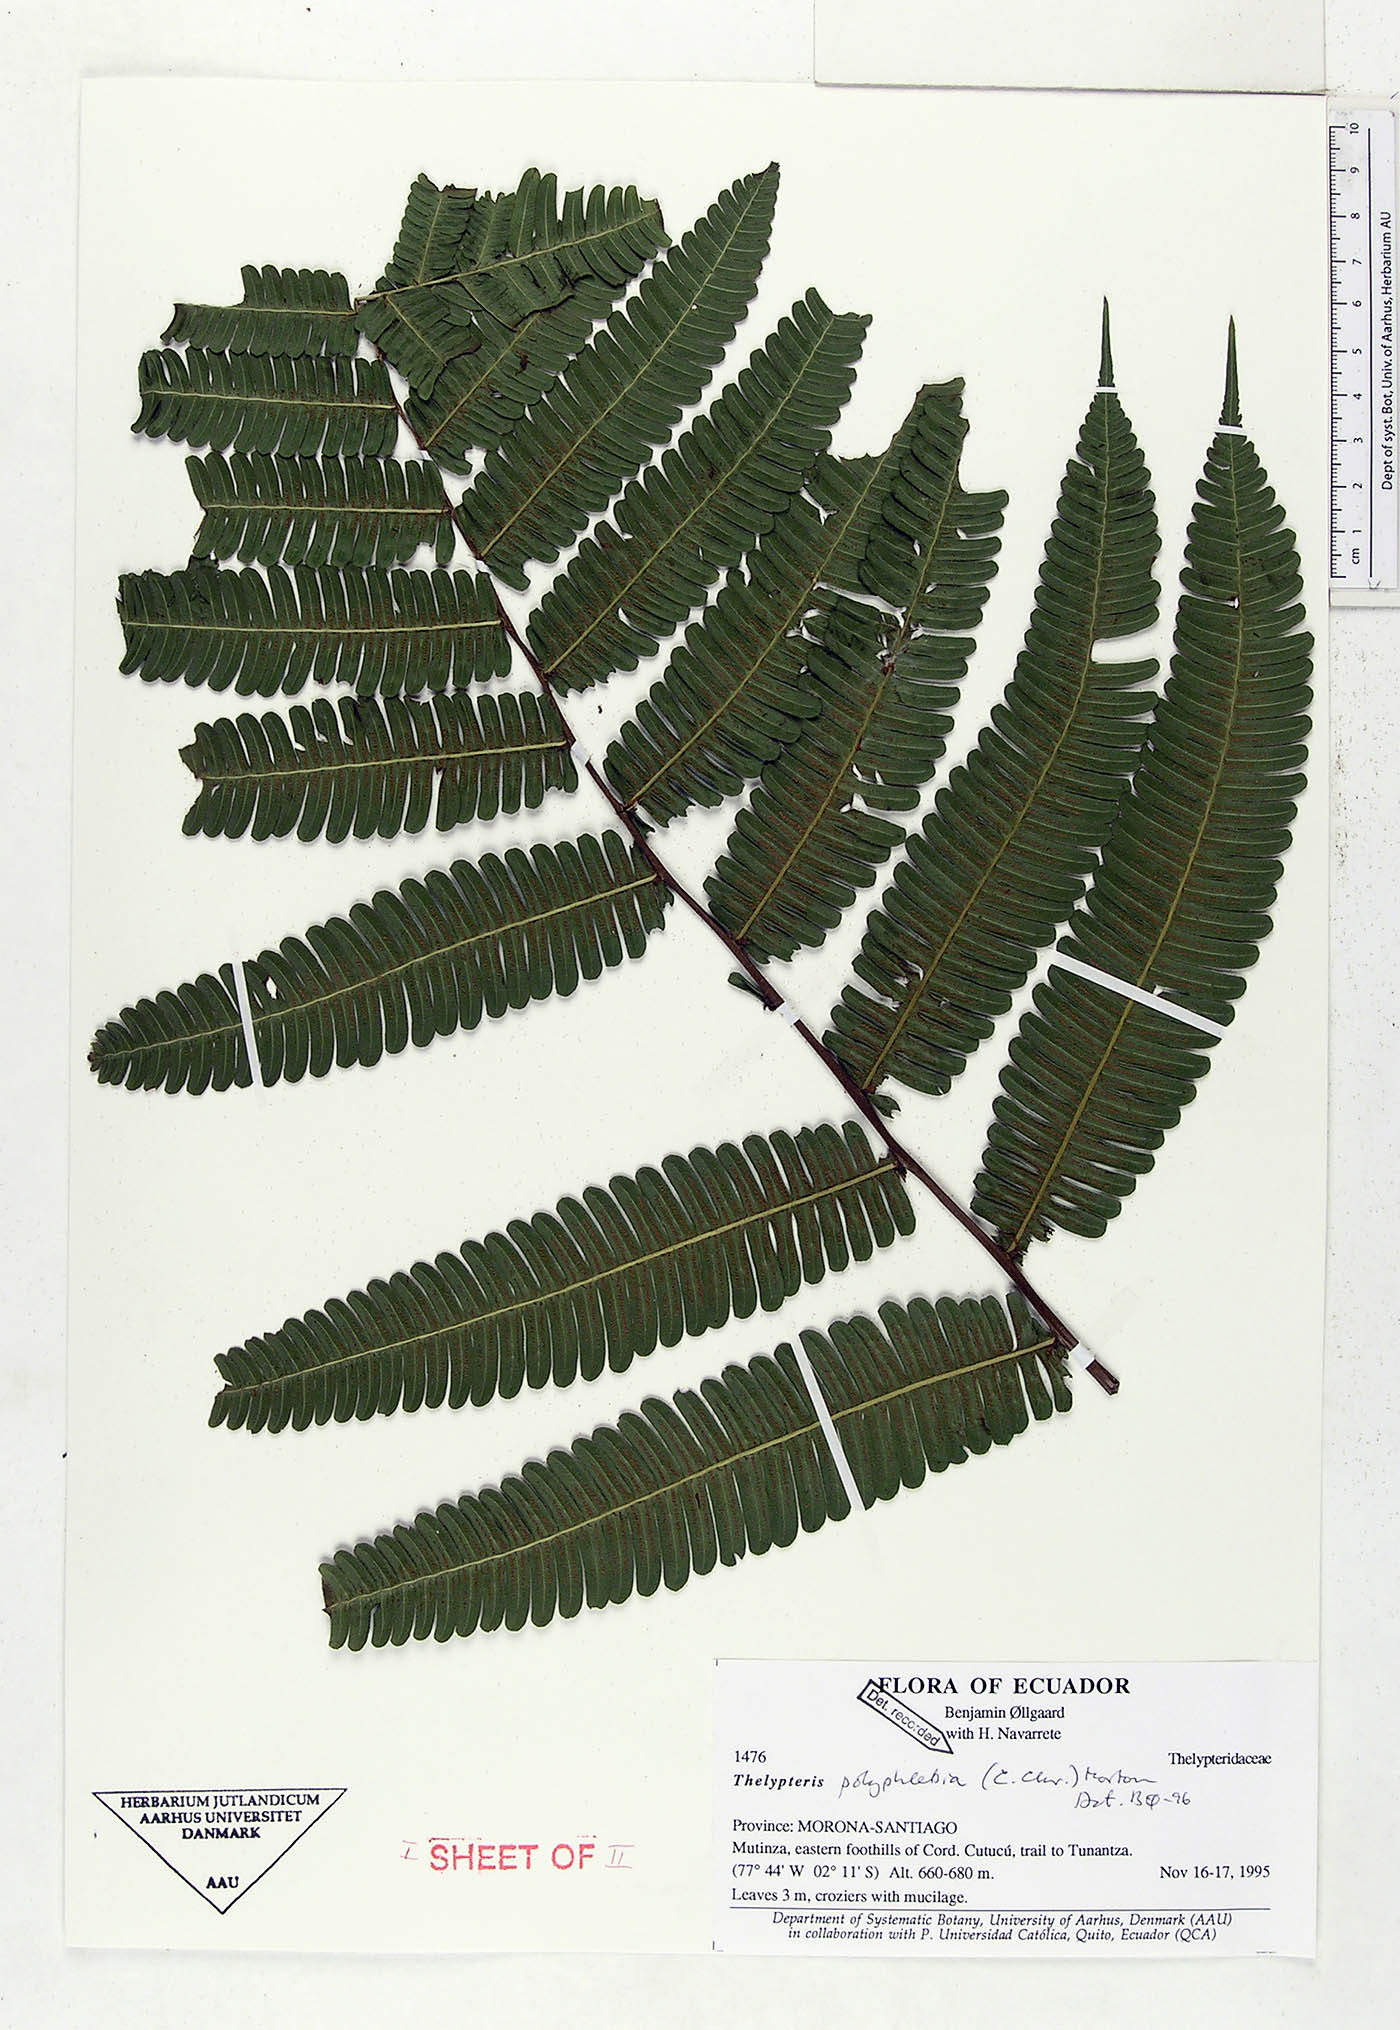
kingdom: Plantae
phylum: Tracheophyta
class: Polypodiopsida
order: Polypodiales
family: Thelypteridaceae
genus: Steiropteris
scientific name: Steiropteris polyphlebia
